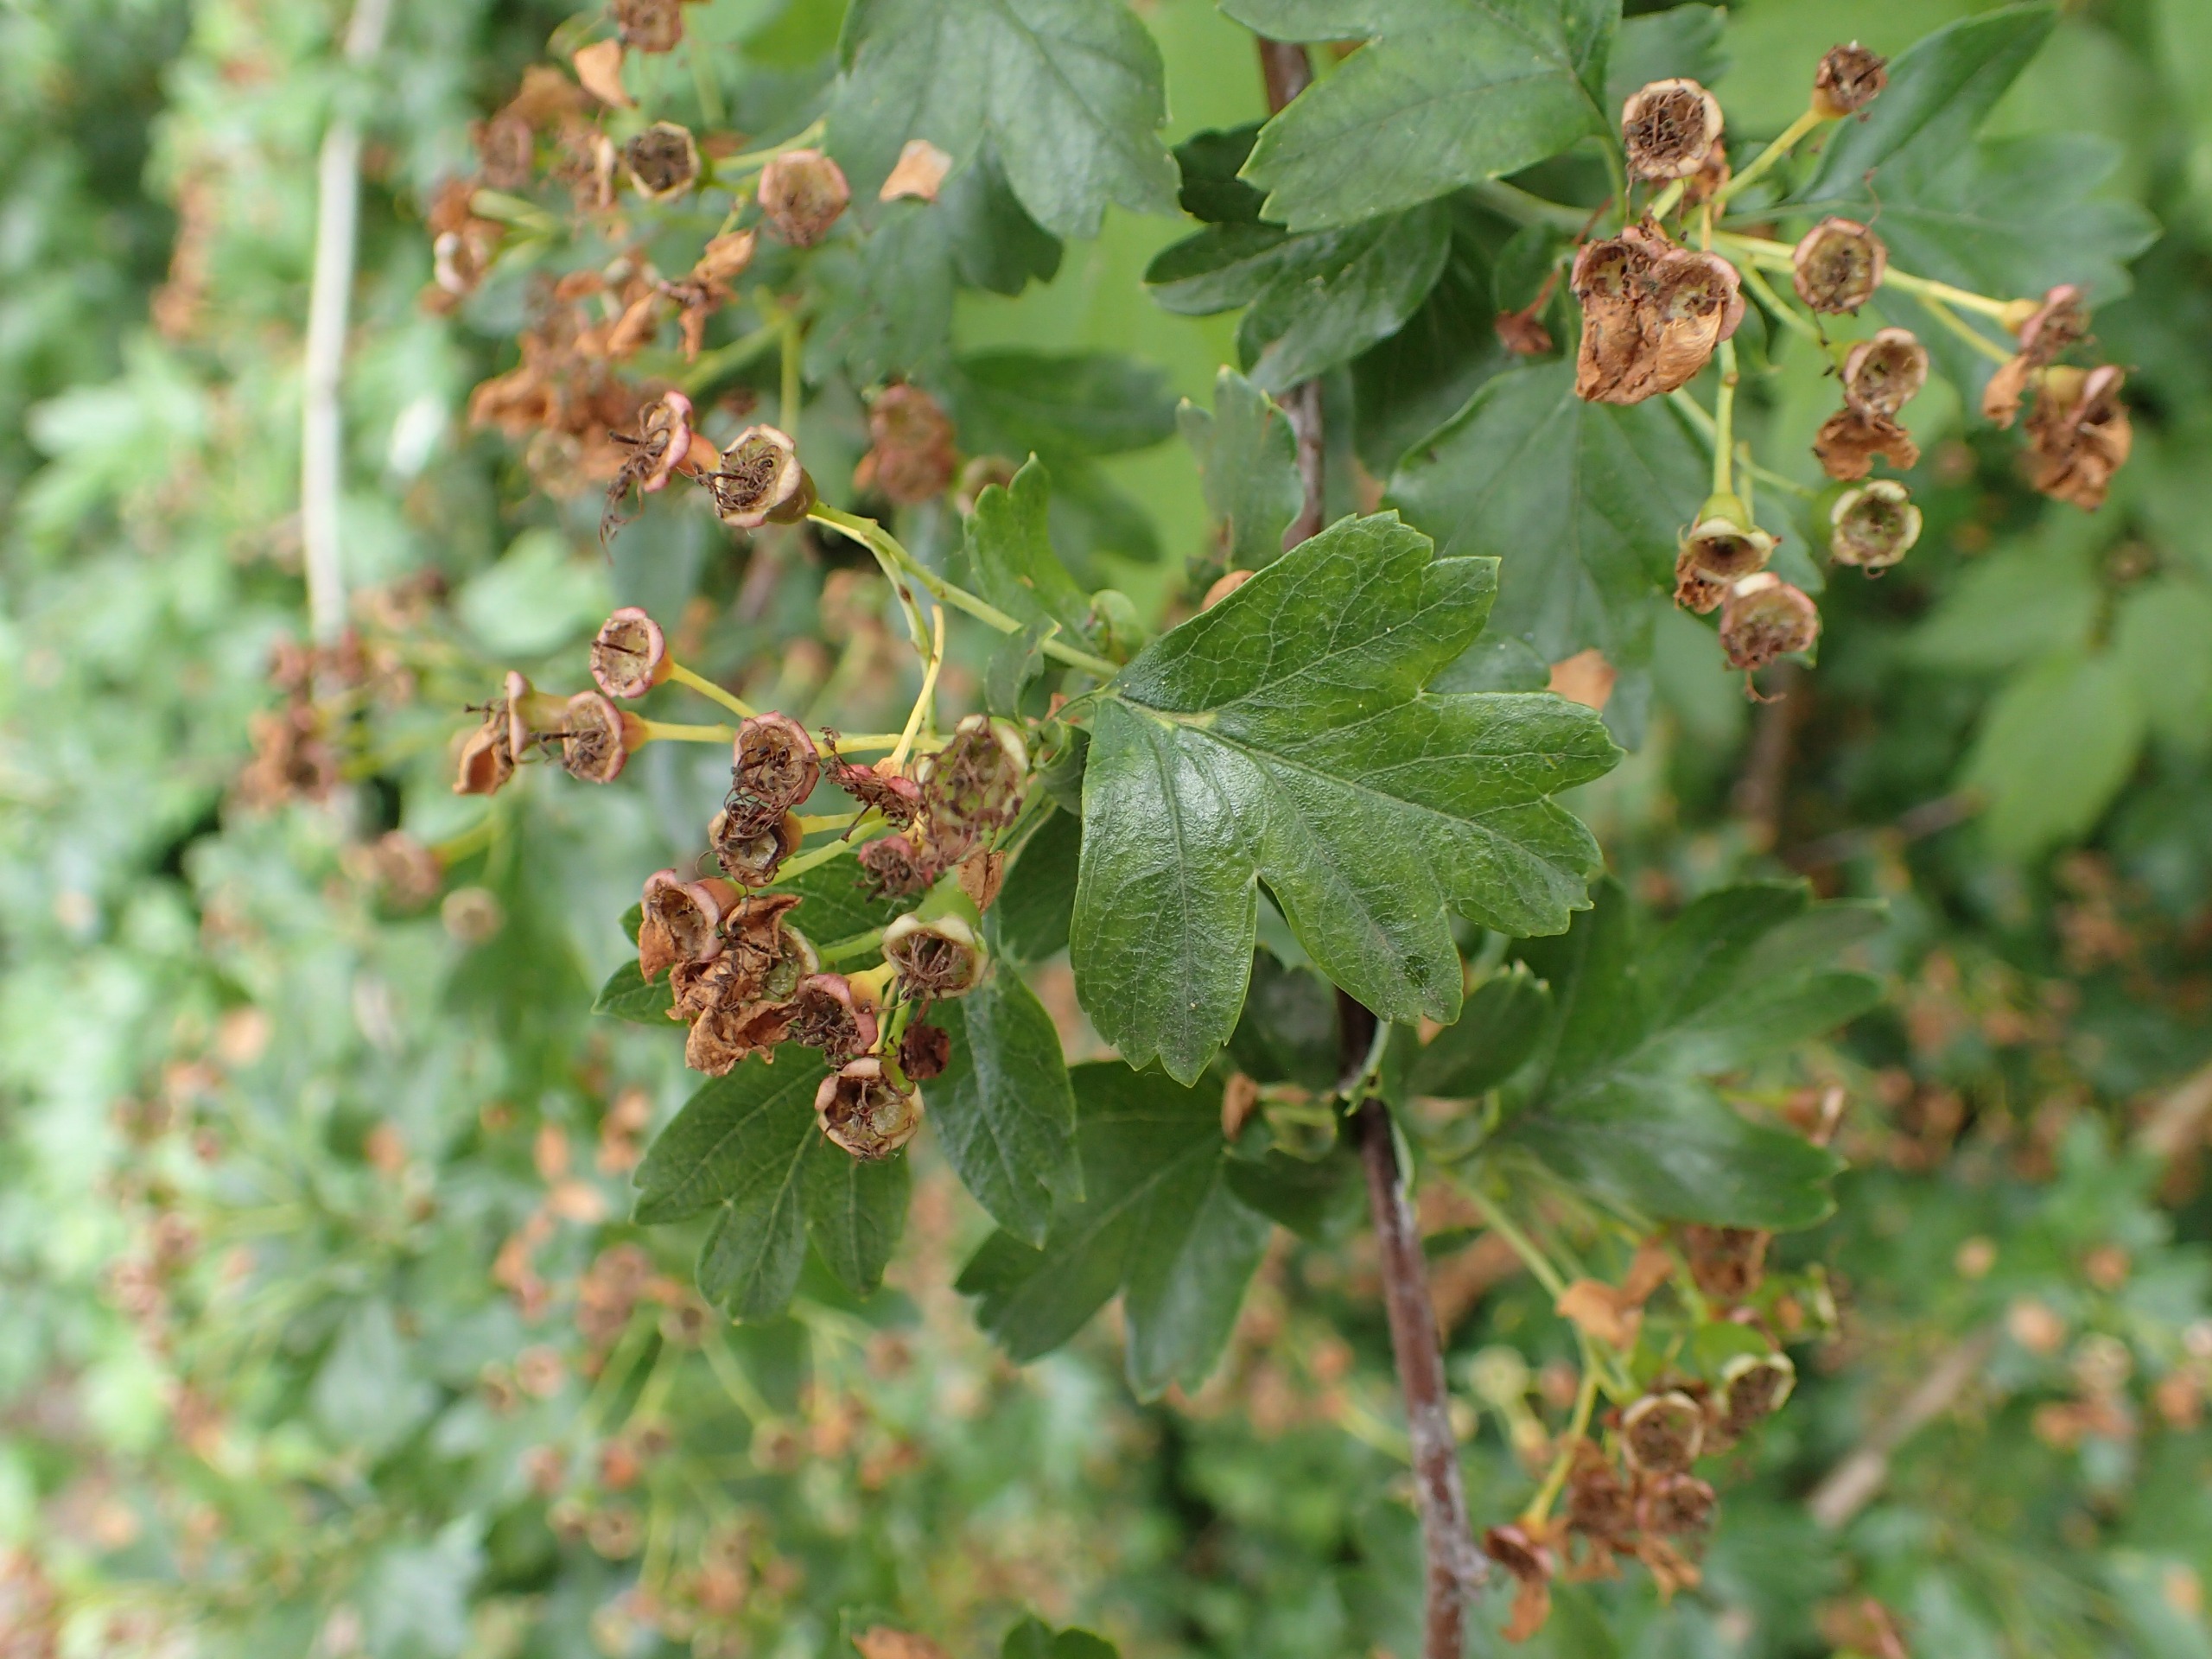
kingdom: Plantae
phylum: Tracheophyta
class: Magnoliopsida
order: Rosales
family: Rosaceae
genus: Crataegus
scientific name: Crataegus monogyna
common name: Engriflet hvidtjørn
